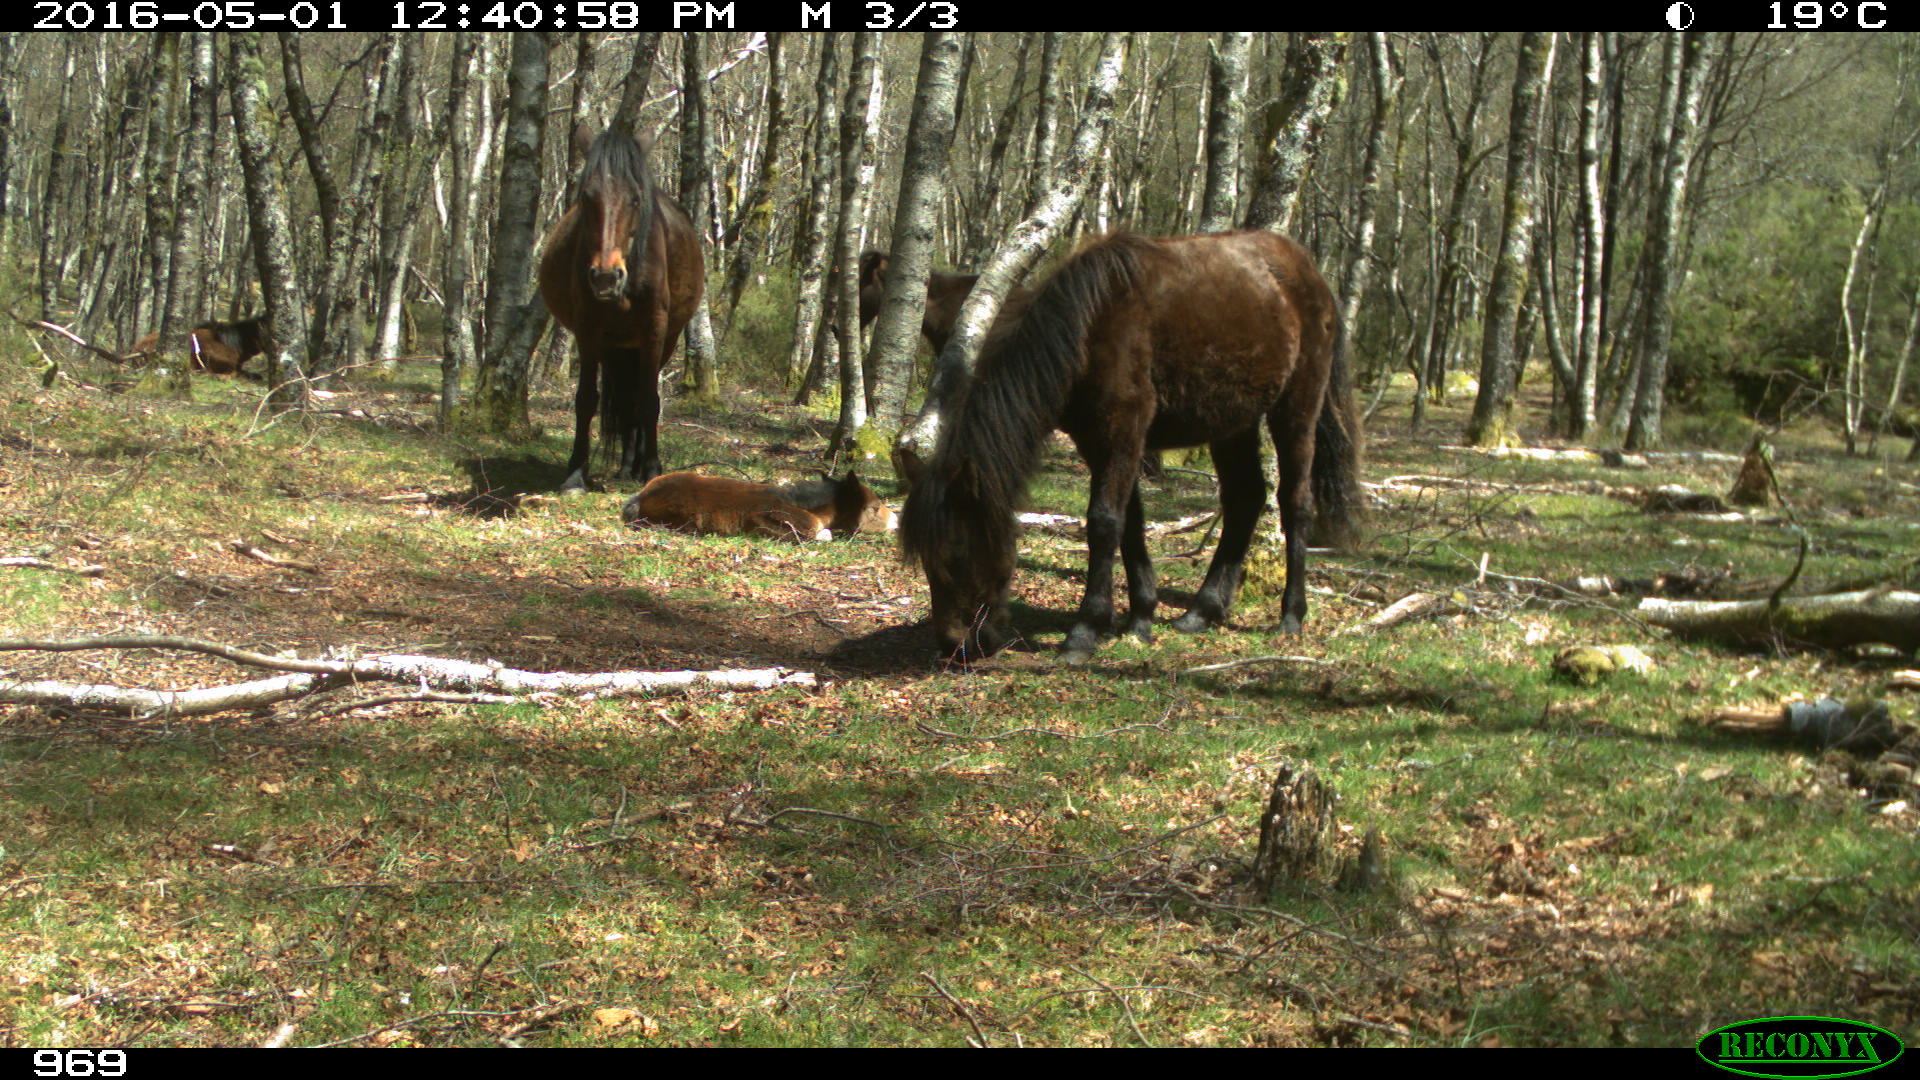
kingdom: Animalia
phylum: Chordata
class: Mammalia
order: Perissodactyla
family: Equidae
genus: Equus
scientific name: Equus caballus
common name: Horse
